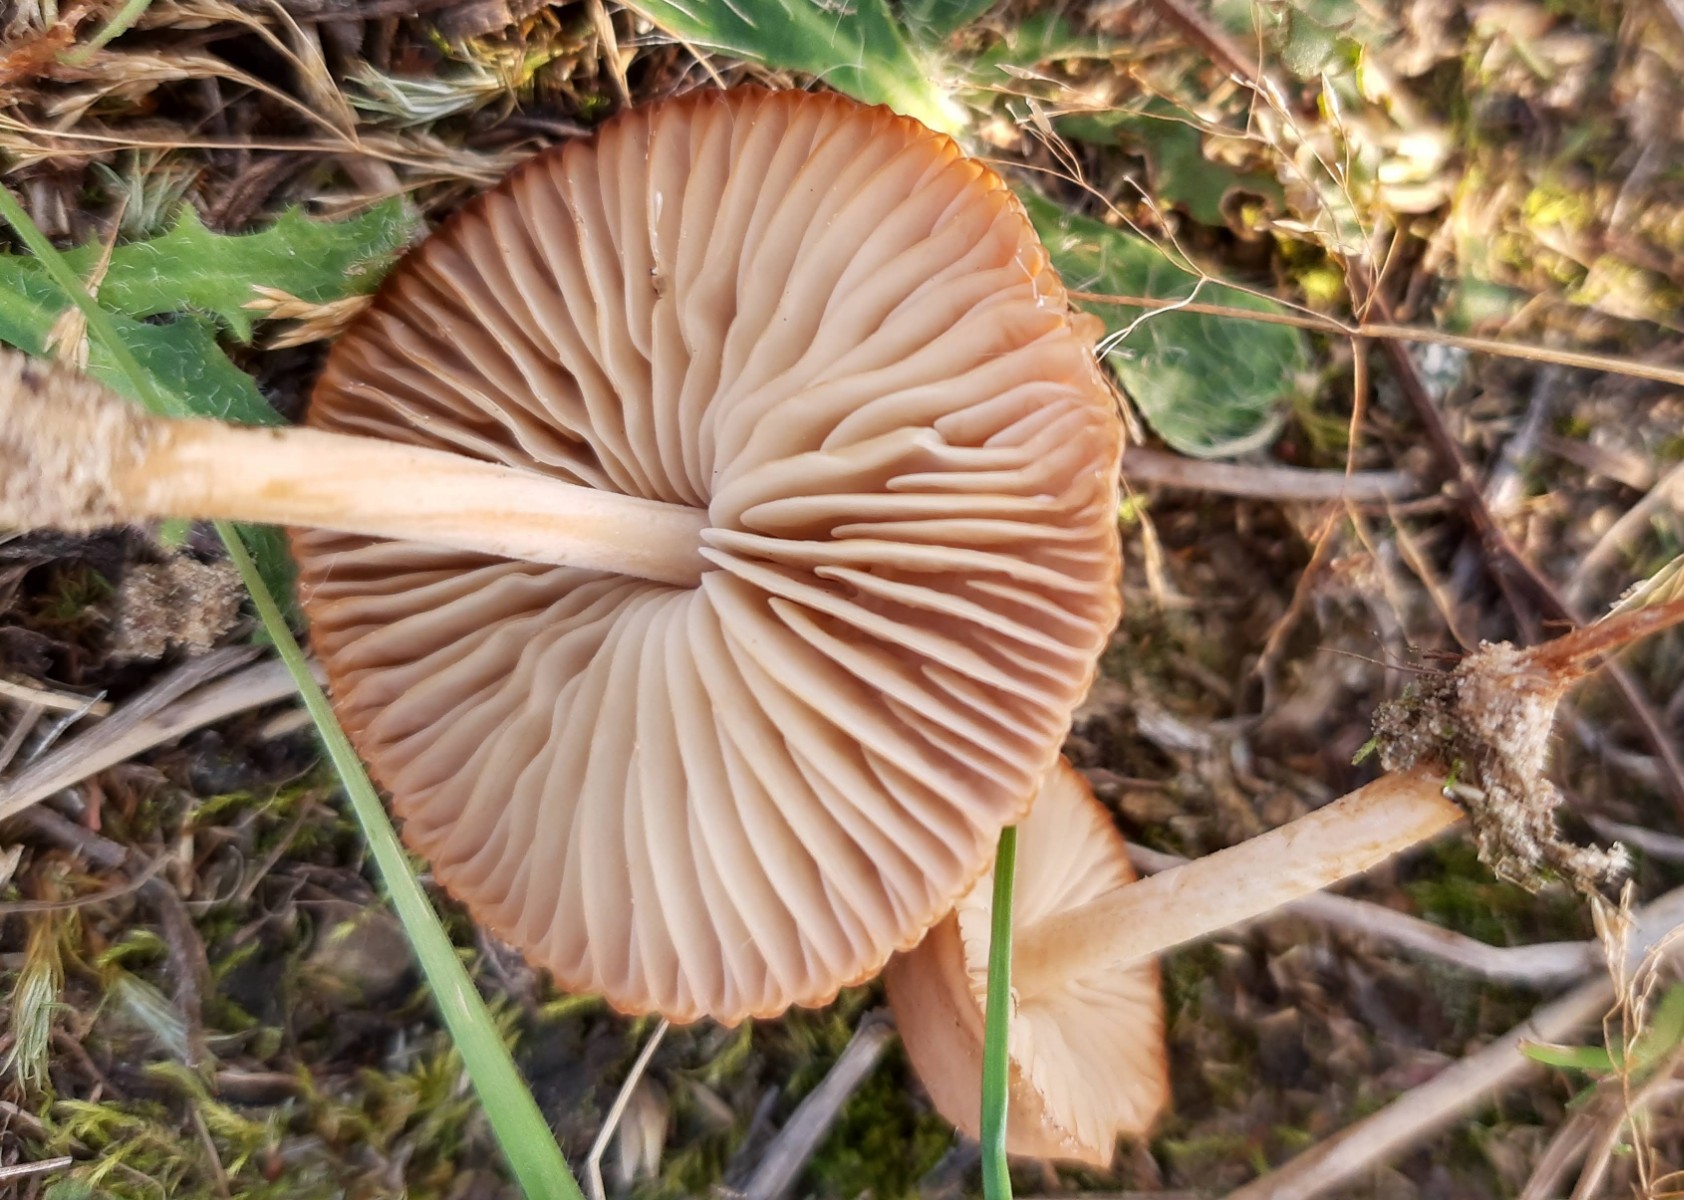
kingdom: Fungi
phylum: Basidiomycota
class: Agaricomycetes
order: Agaricales
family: Marasmiaceae
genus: Marasmius
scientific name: Marasmius oreades
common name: elledans-bruskhat
